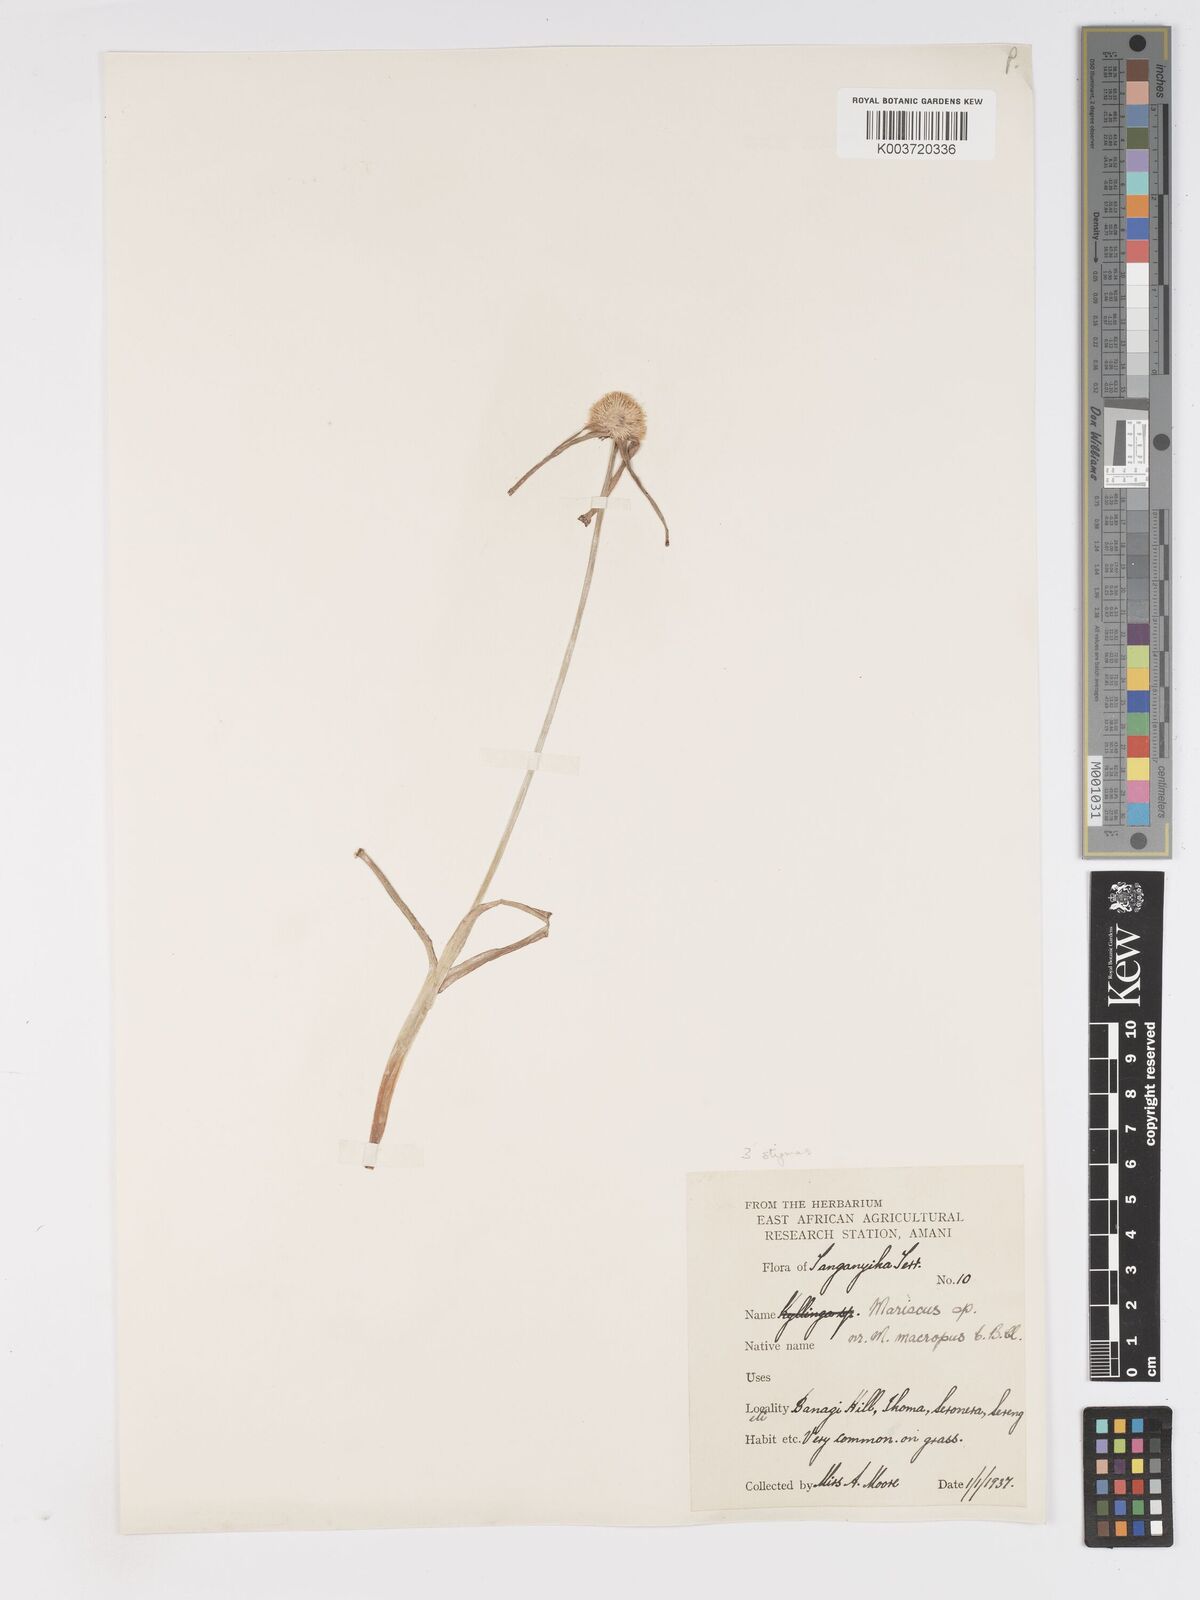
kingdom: Plantae
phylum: Tracheophyta
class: Liliopsida
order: Poales
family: Cyperaceae
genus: Cyperus
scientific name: Cyperus
